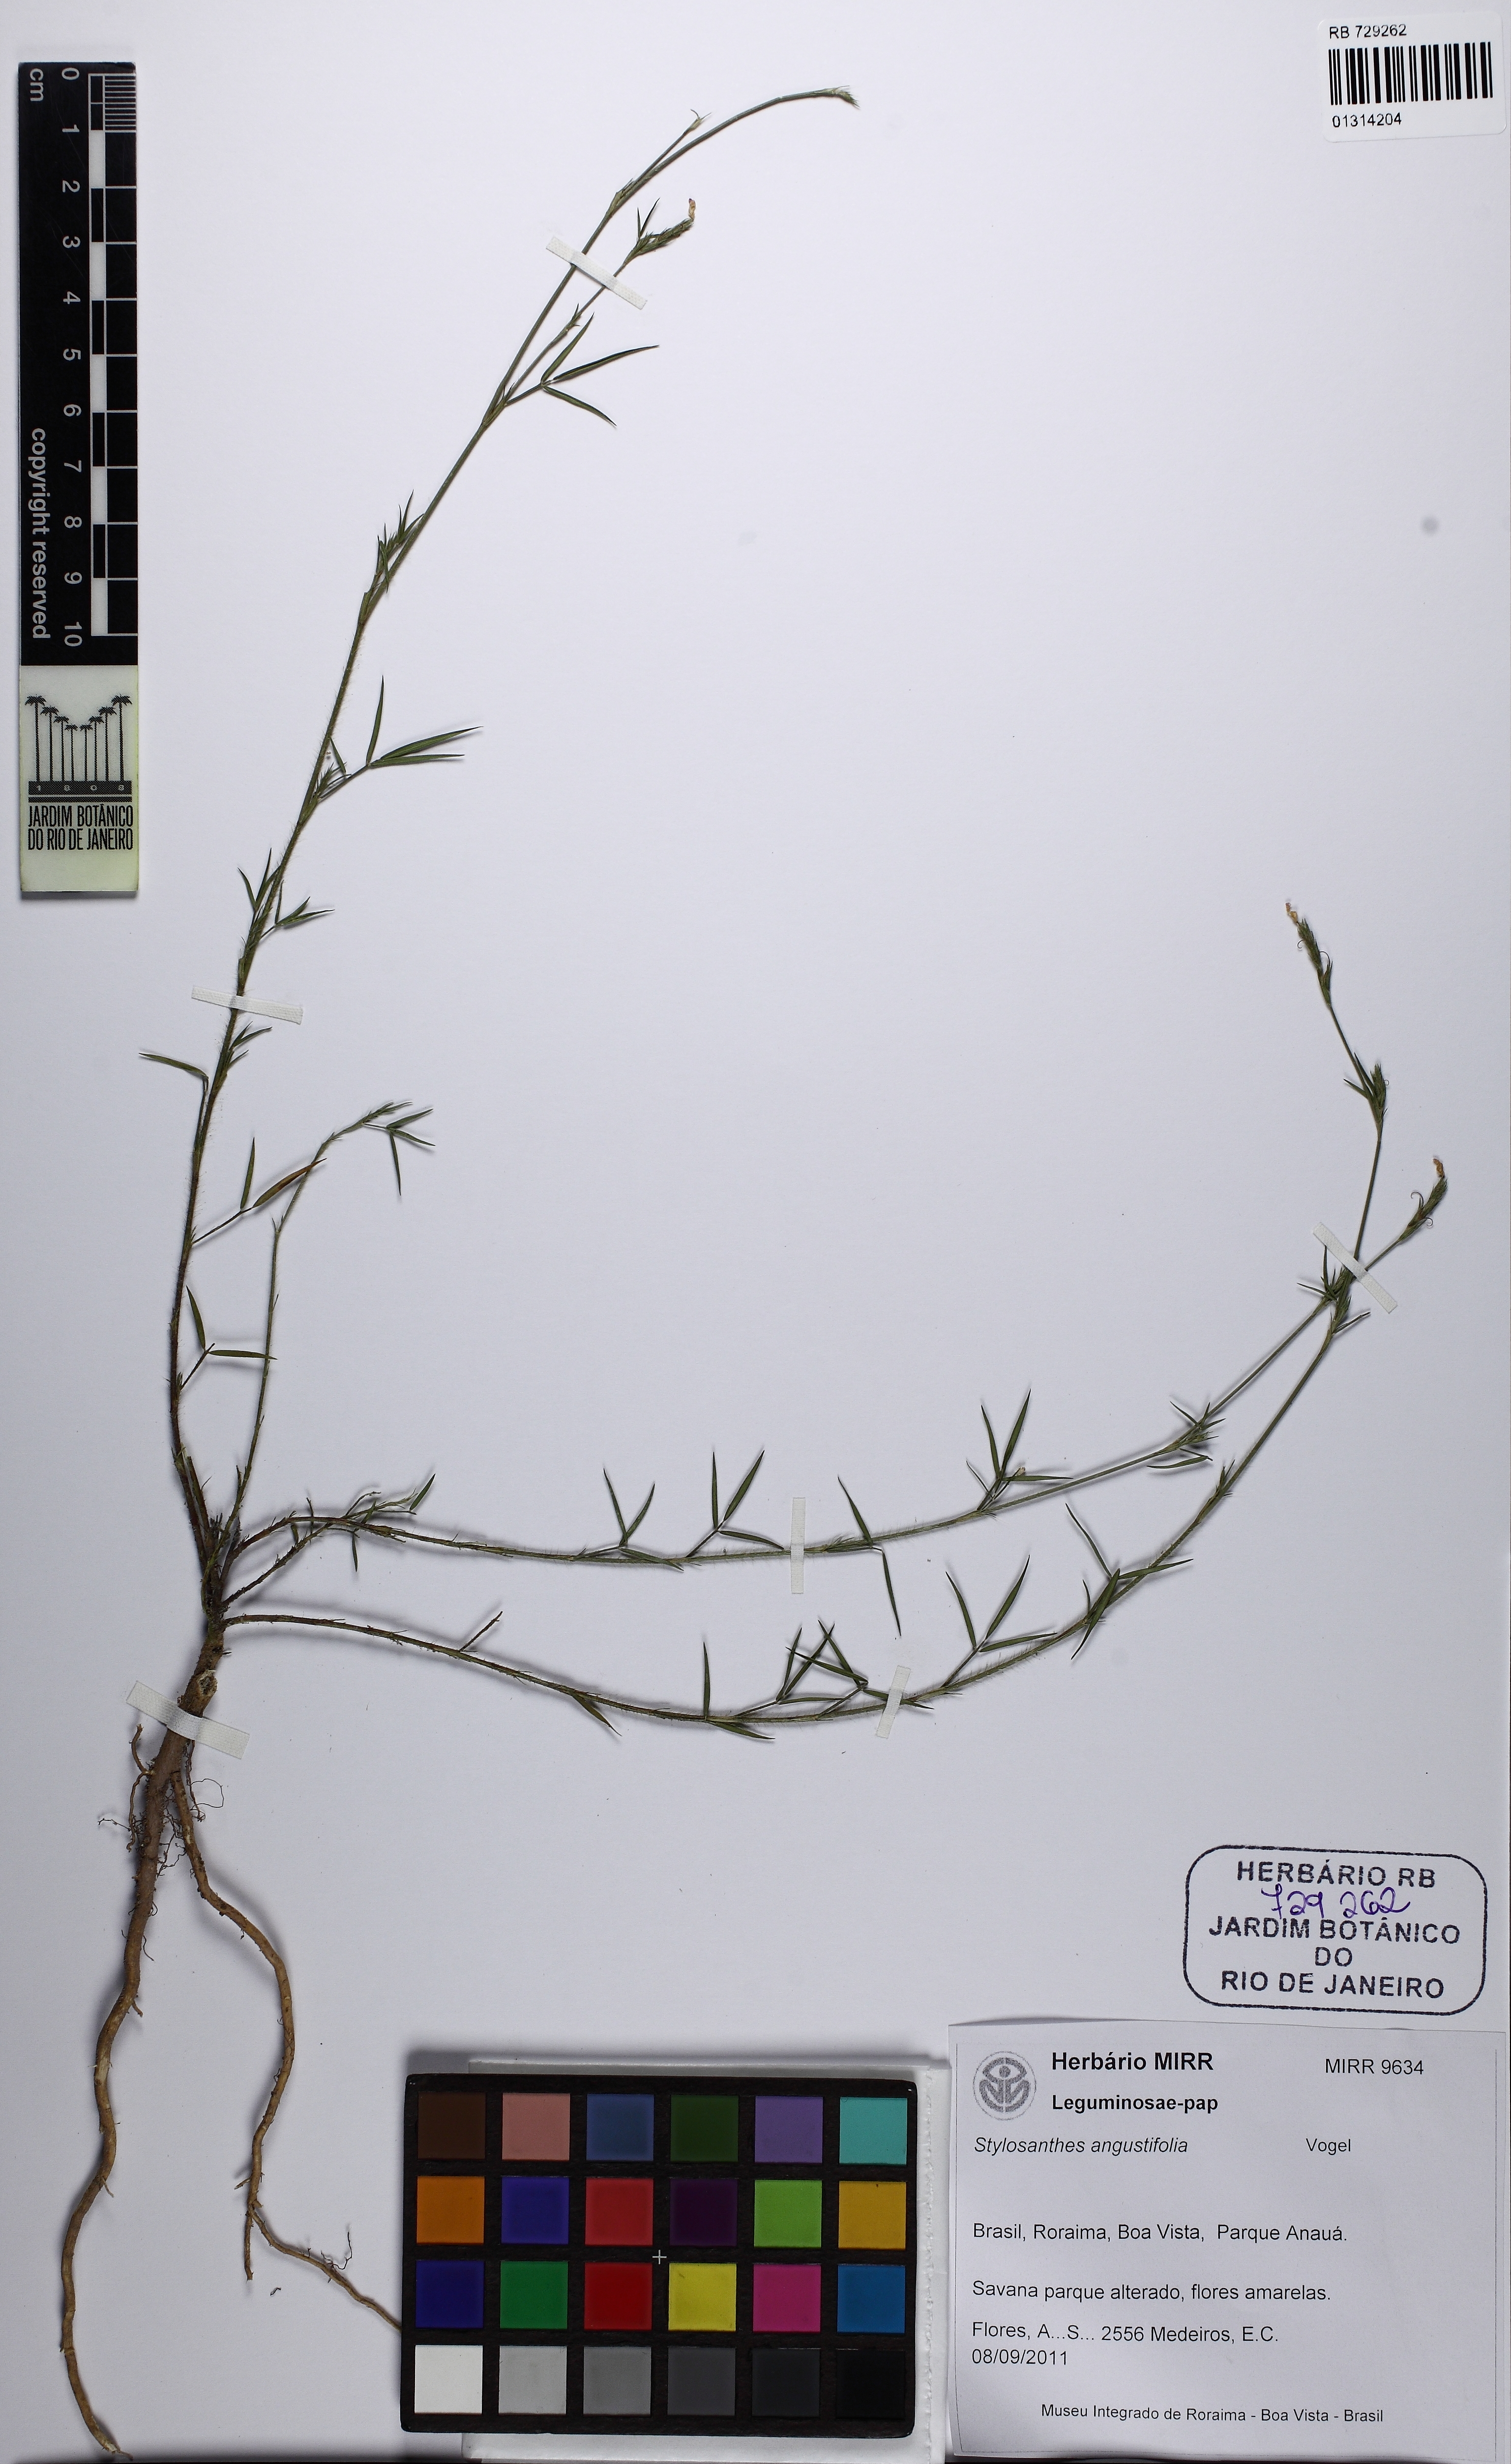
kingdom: Plantae
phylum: Tracheophyta
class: Magnoliopsida
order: Fabales
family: Fabaceae
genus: Stylosanthes
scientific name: Stylosanthes angustifolia
